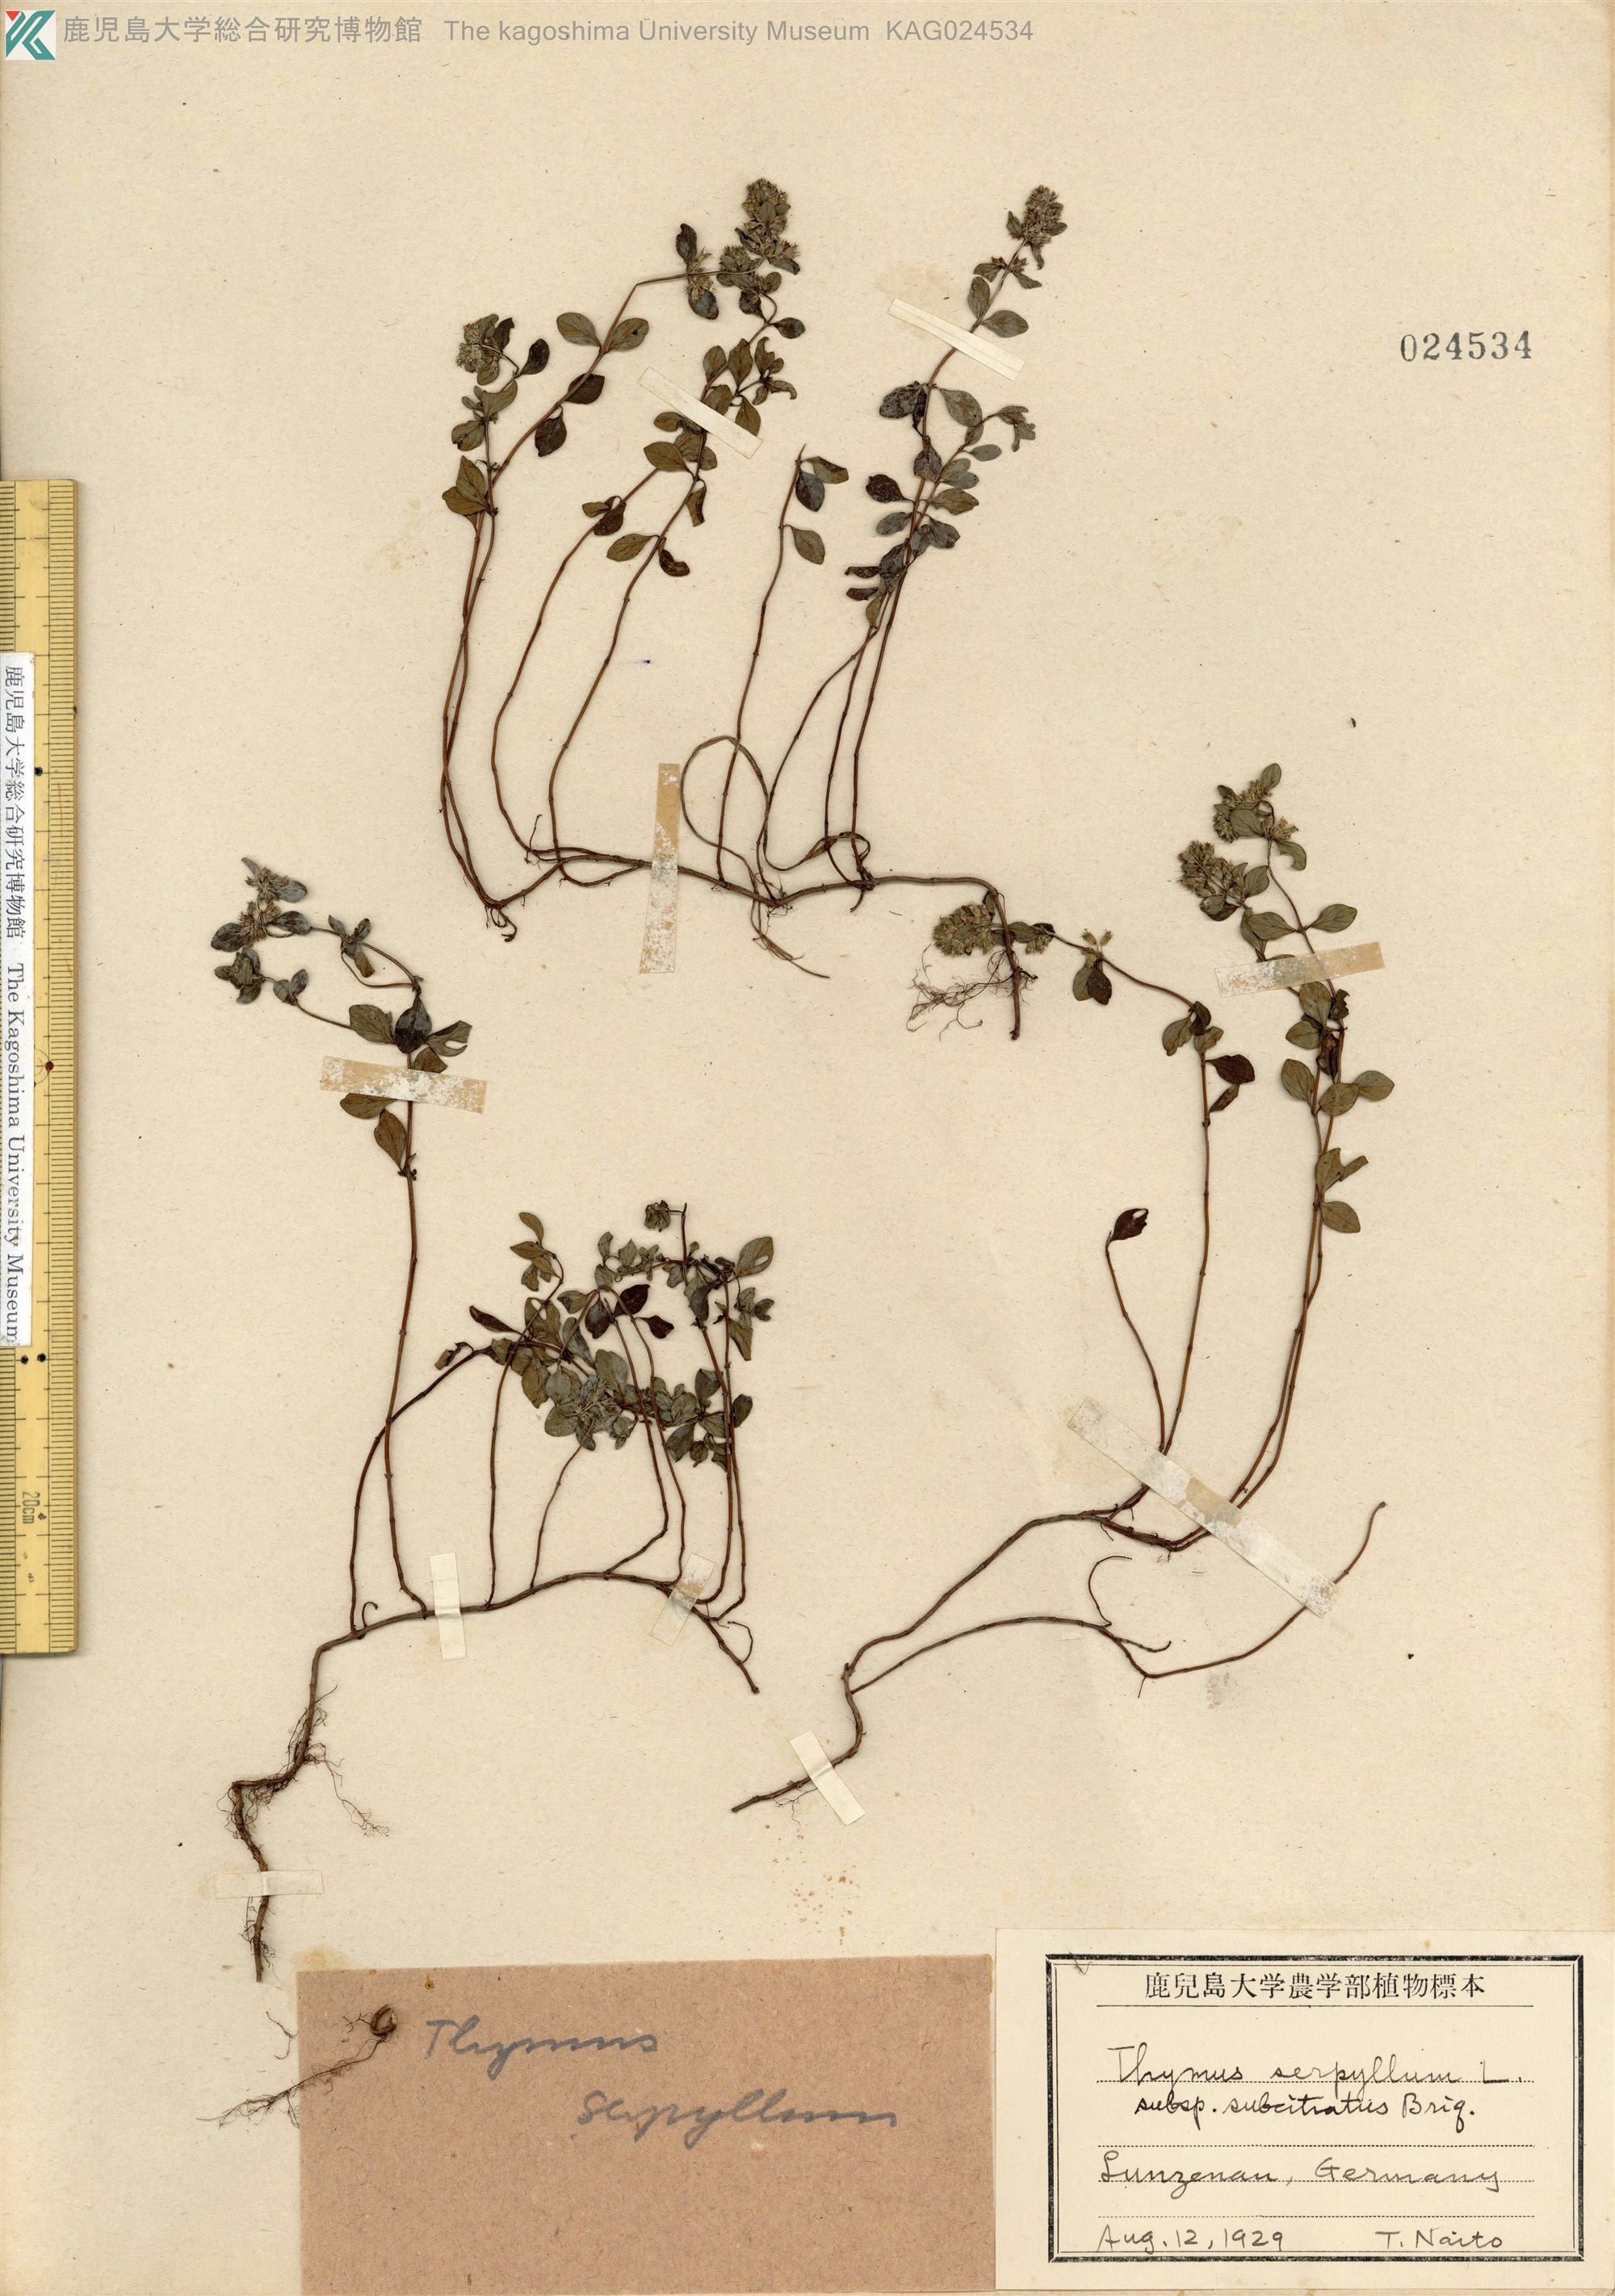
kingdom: Plantae
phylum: Tracheophyta
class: Magnoliopsida
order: Lamiales
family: Lamiaceae
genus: Thymus
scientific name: Thymus quinquecostatus
